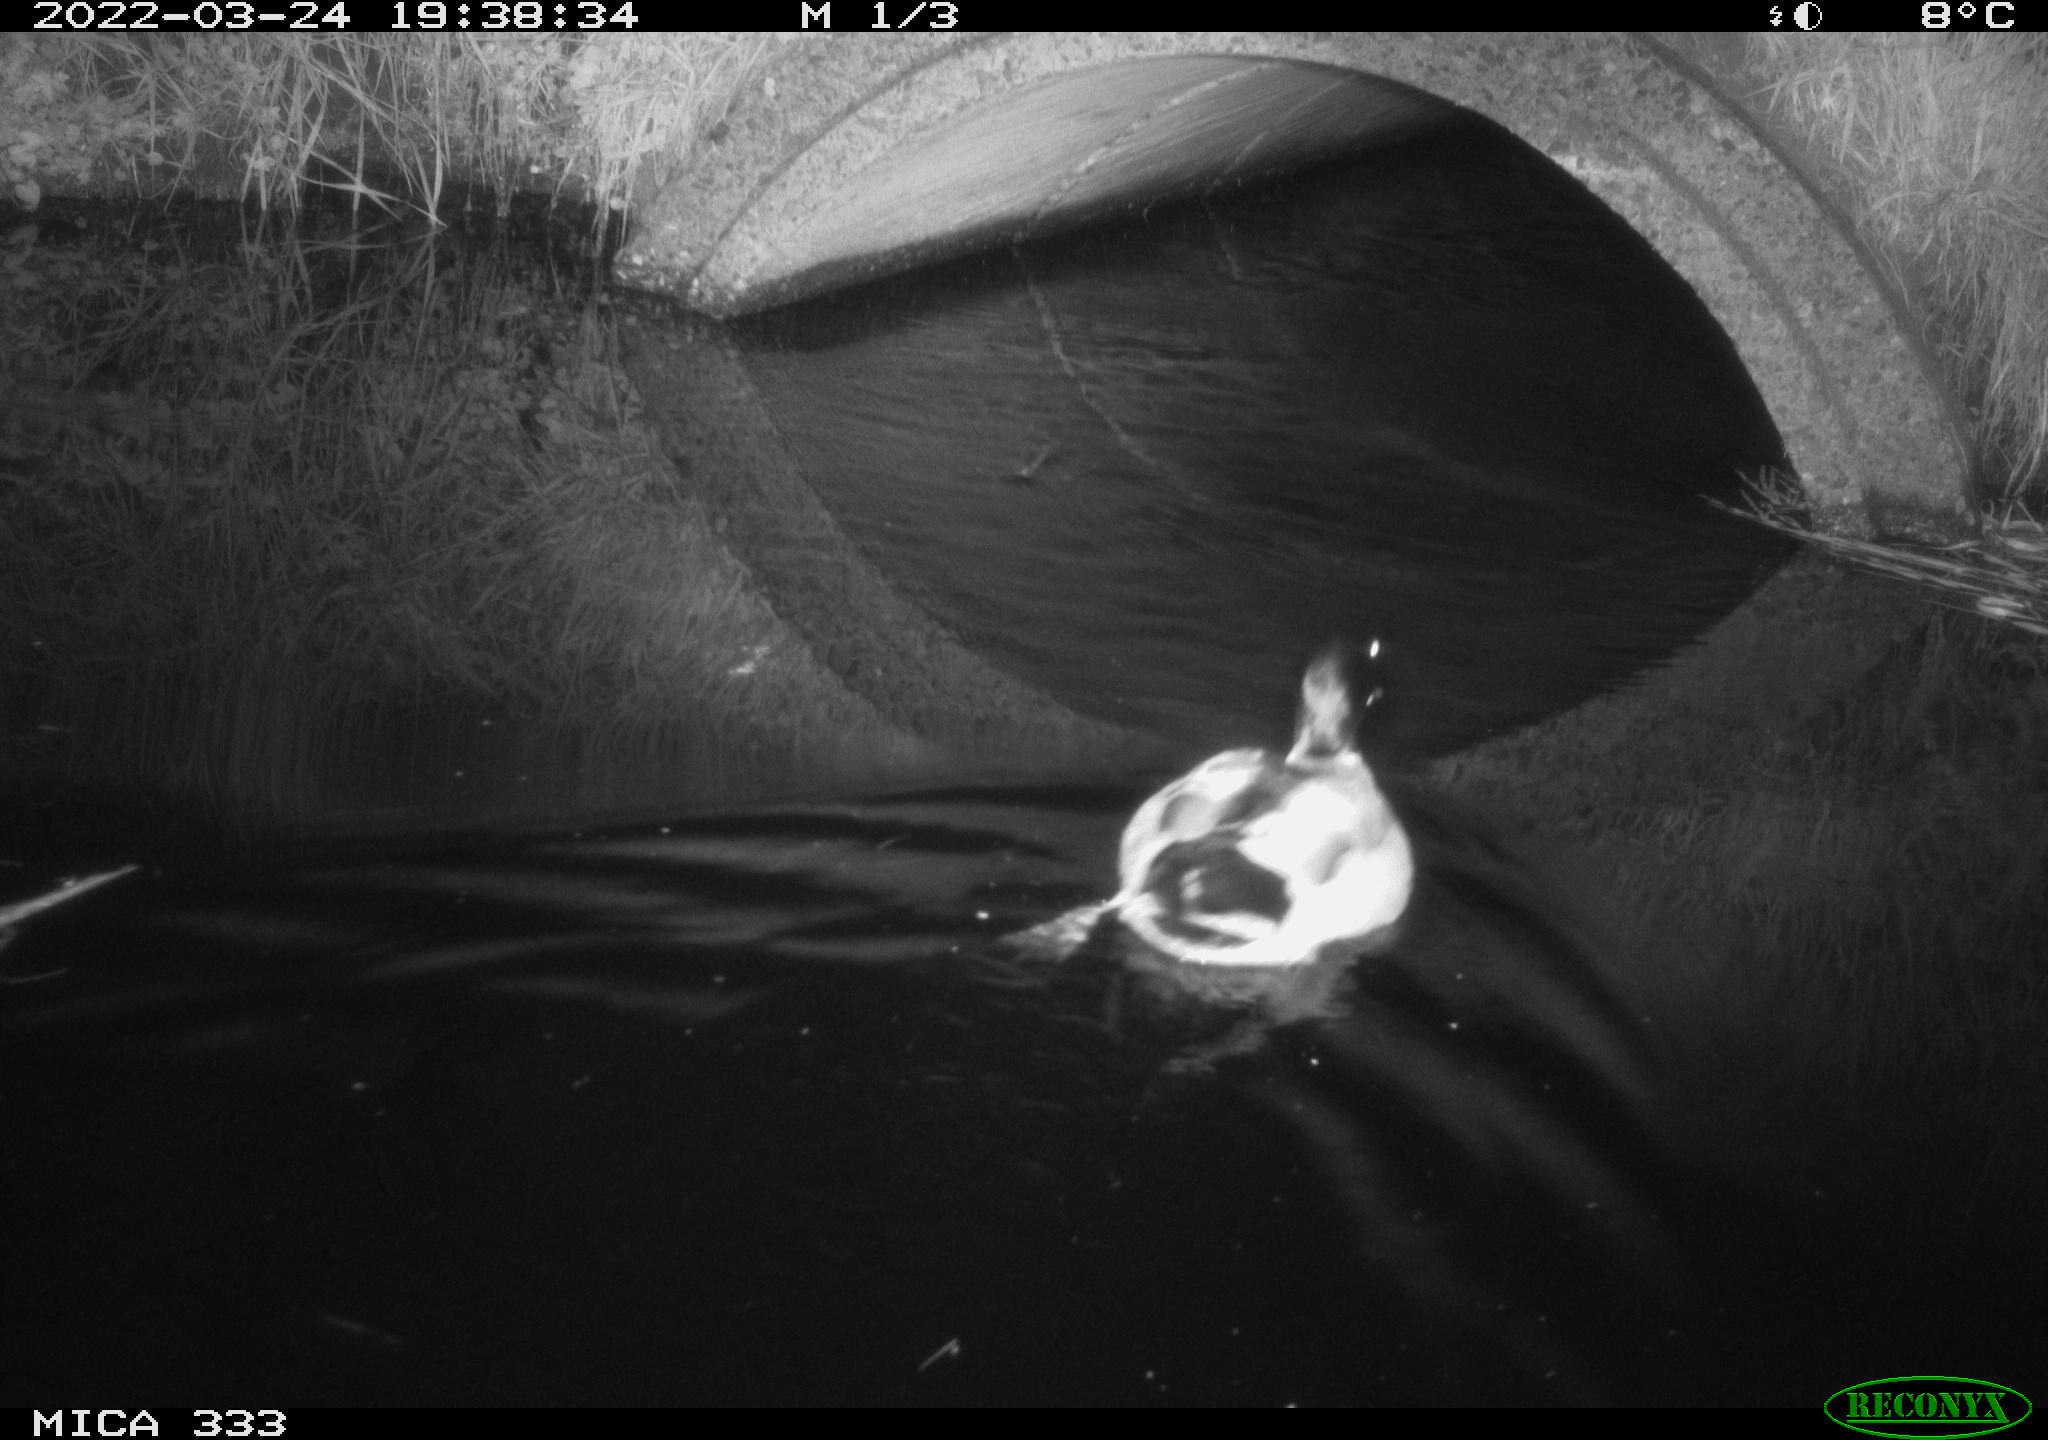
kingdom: Animalia
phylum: Chordata
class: Aves
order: Anseriformes
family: Anatidae
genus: Anas
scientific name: Anas platyrhynchos
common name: Mallard
